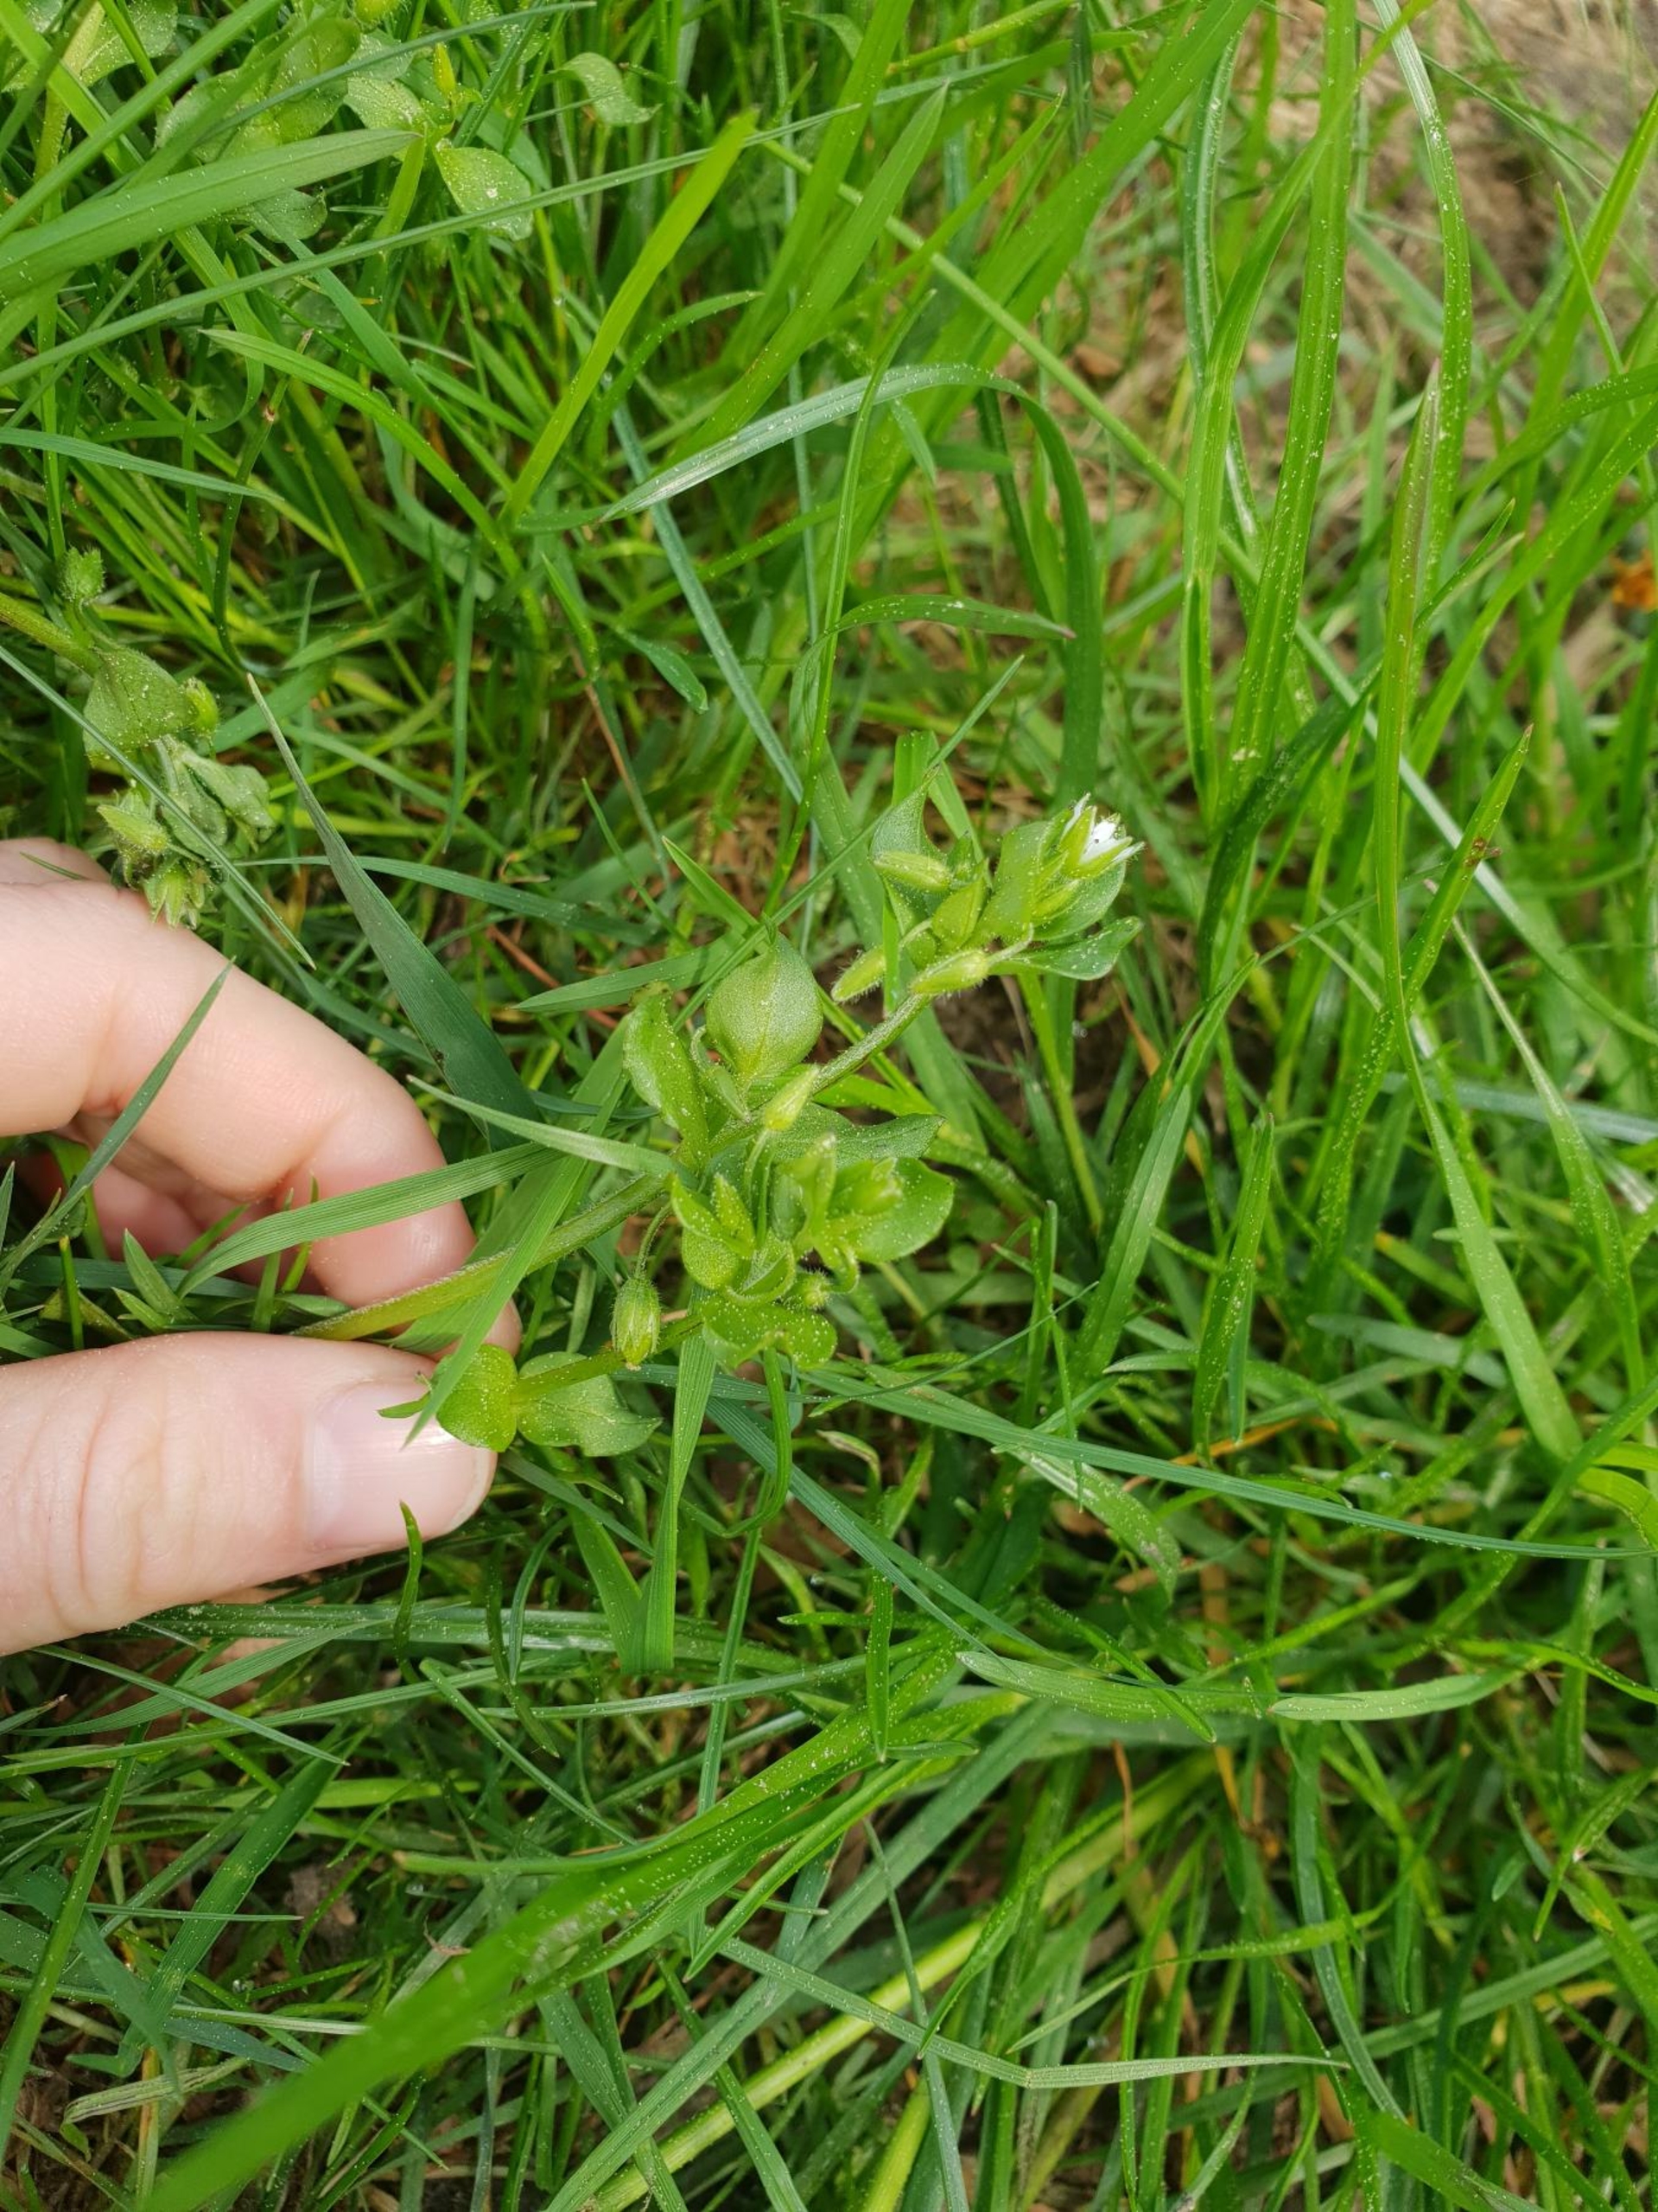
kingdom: Plantae
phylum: Tracheophyta
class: Magnoliopsida
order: Caryophyllales
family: Caryophyllaceae
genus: Stellaria
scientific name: Stellaria media
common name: Almindelig fuglegræs
